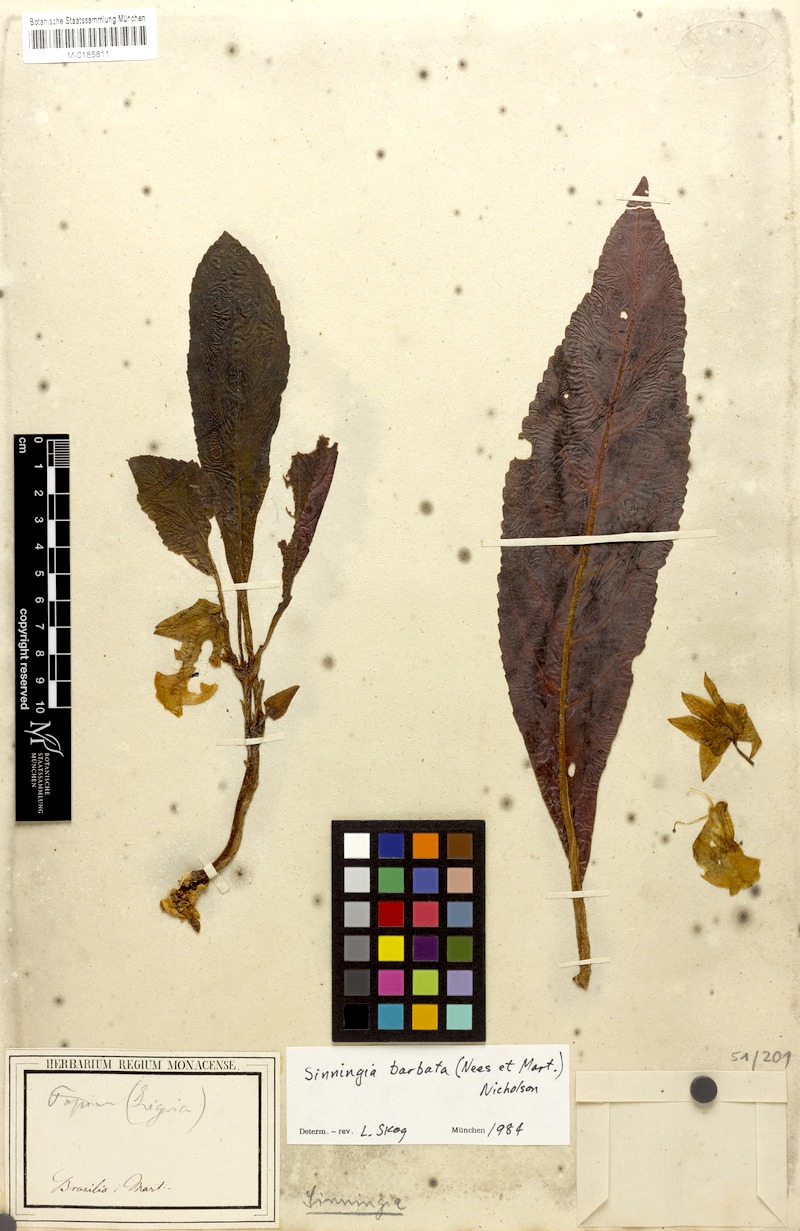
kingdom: Plantae
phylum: Tracheophyta
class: Magnoliopsida
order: Lamiales
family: Gesneriaceae
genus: Sinningia
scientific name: Sinningia barbata
